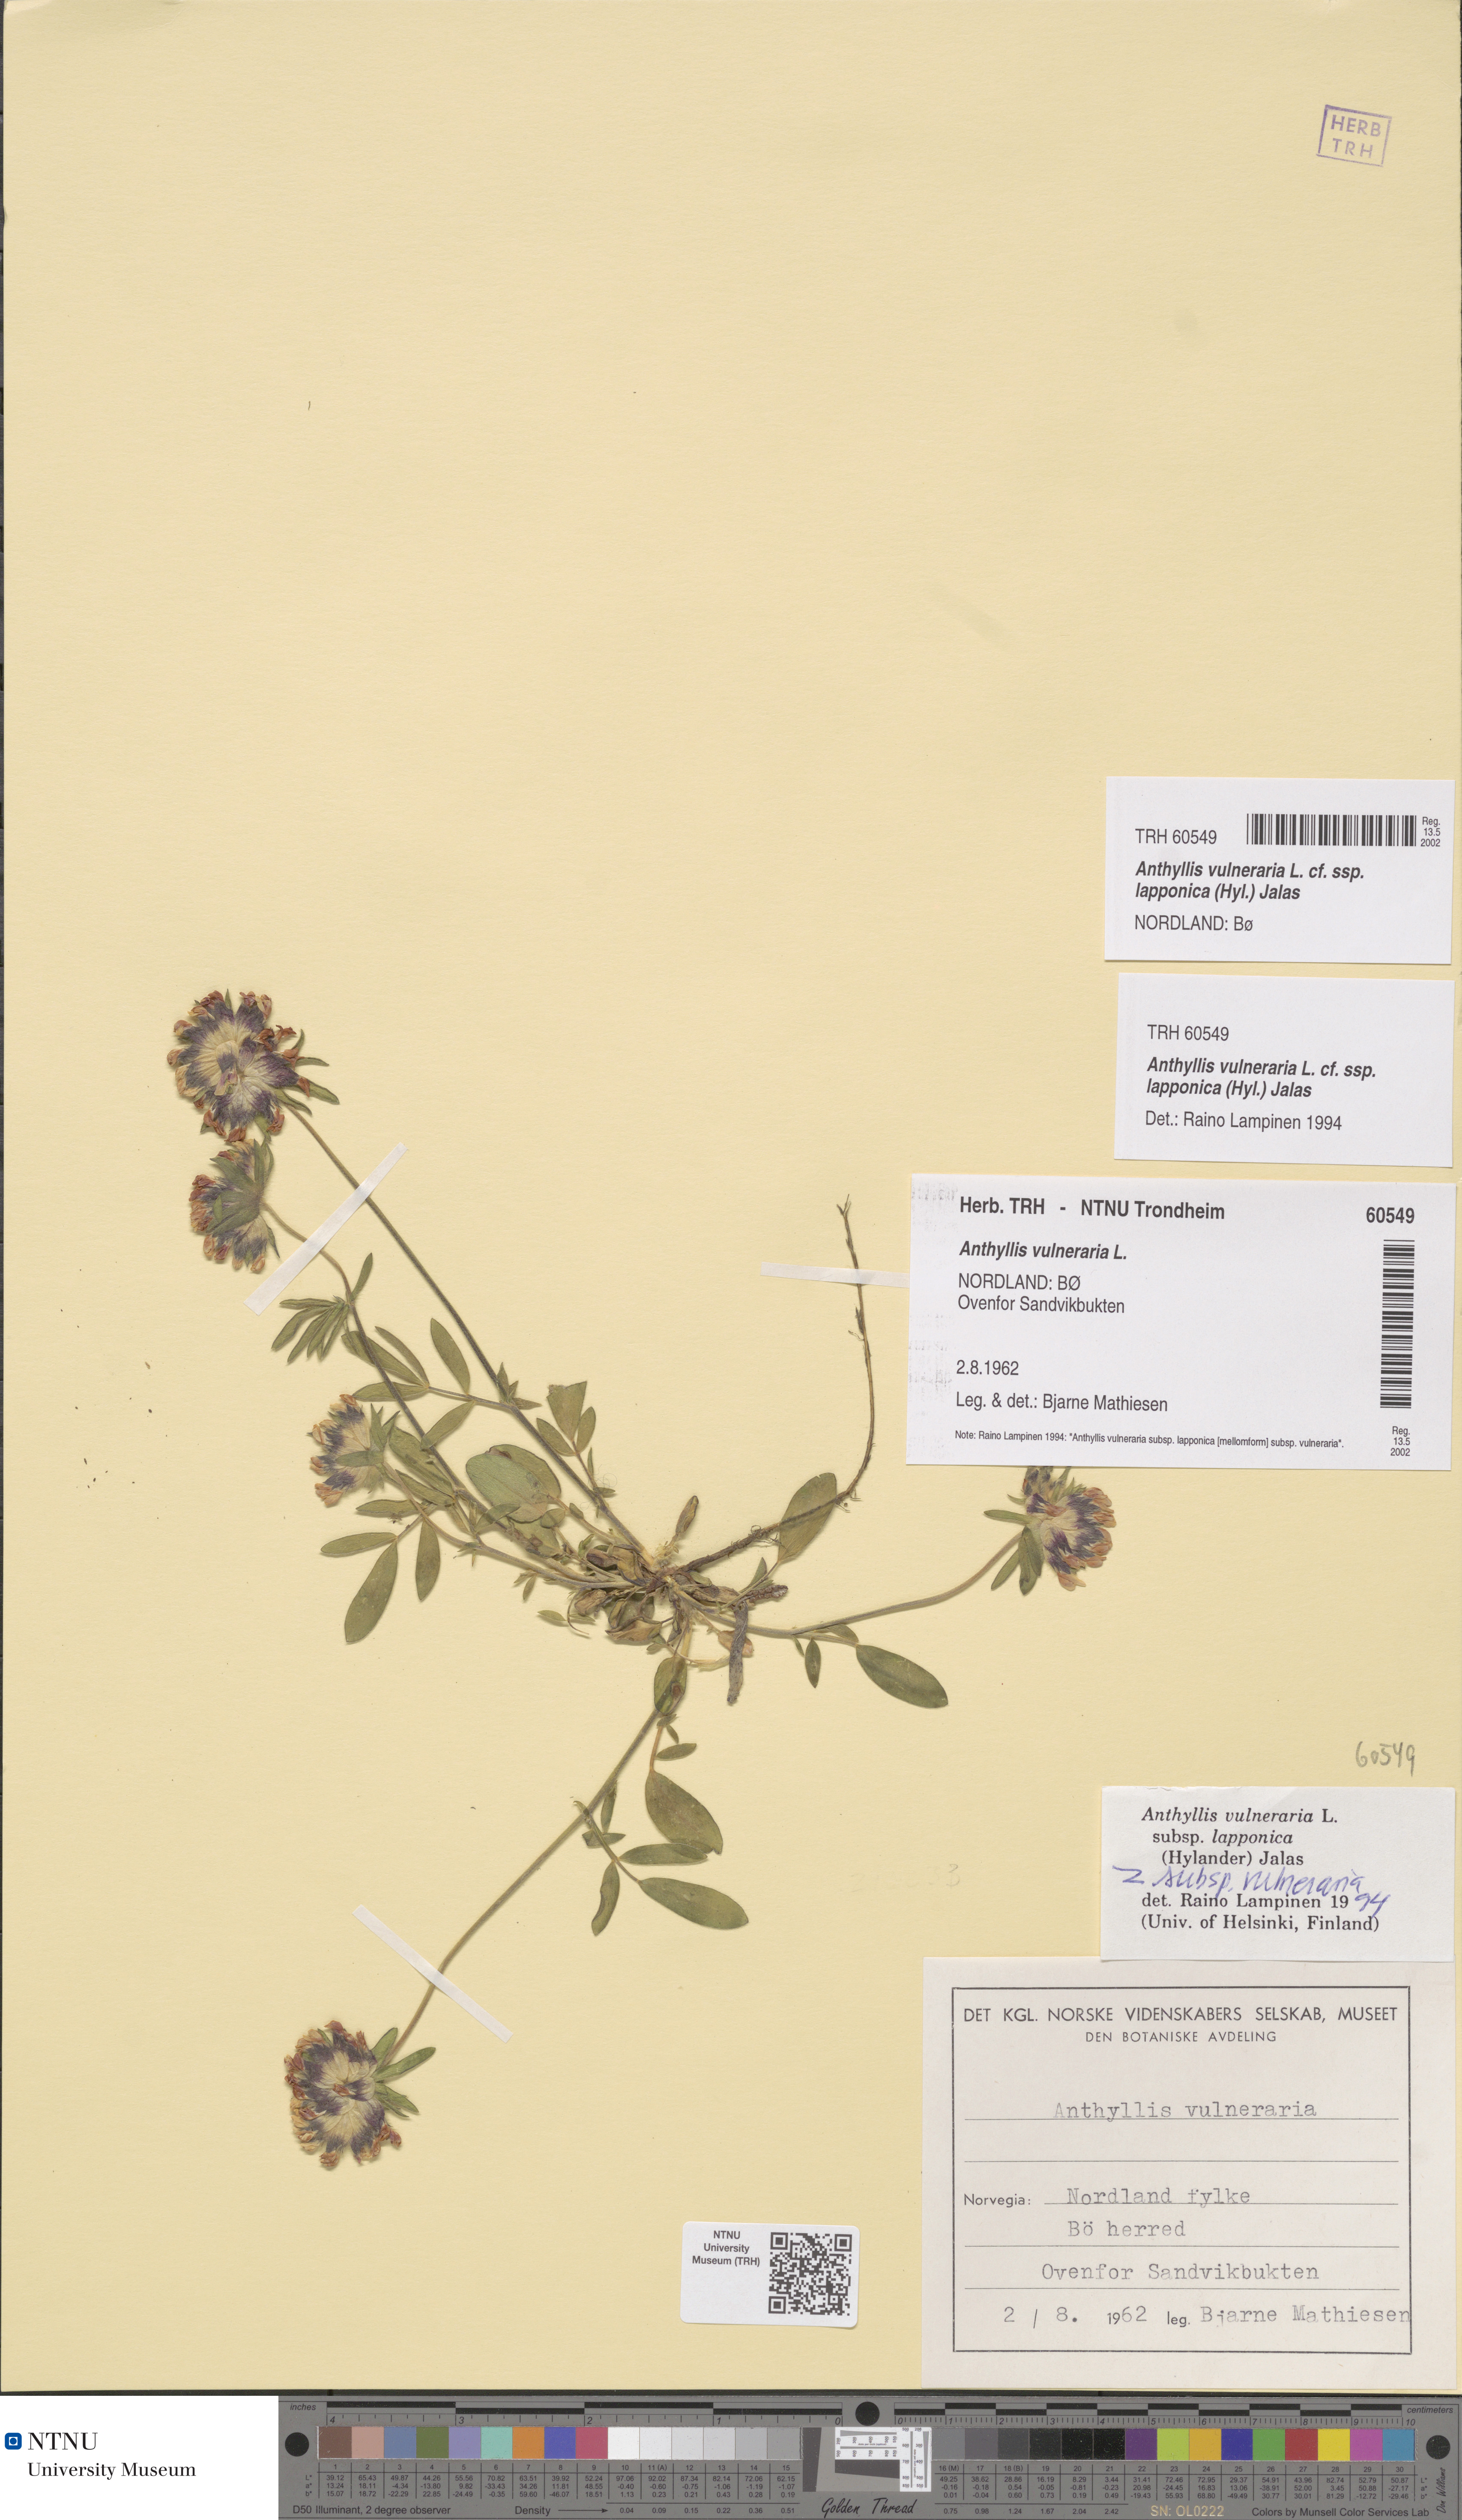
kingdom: Plantae
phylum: Tracheophyta
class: Magnoliopsida
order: Fabales
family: Fabaceae
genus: Anthyllis
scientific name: Anthyllis vulneraria
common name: Kidney vetch
